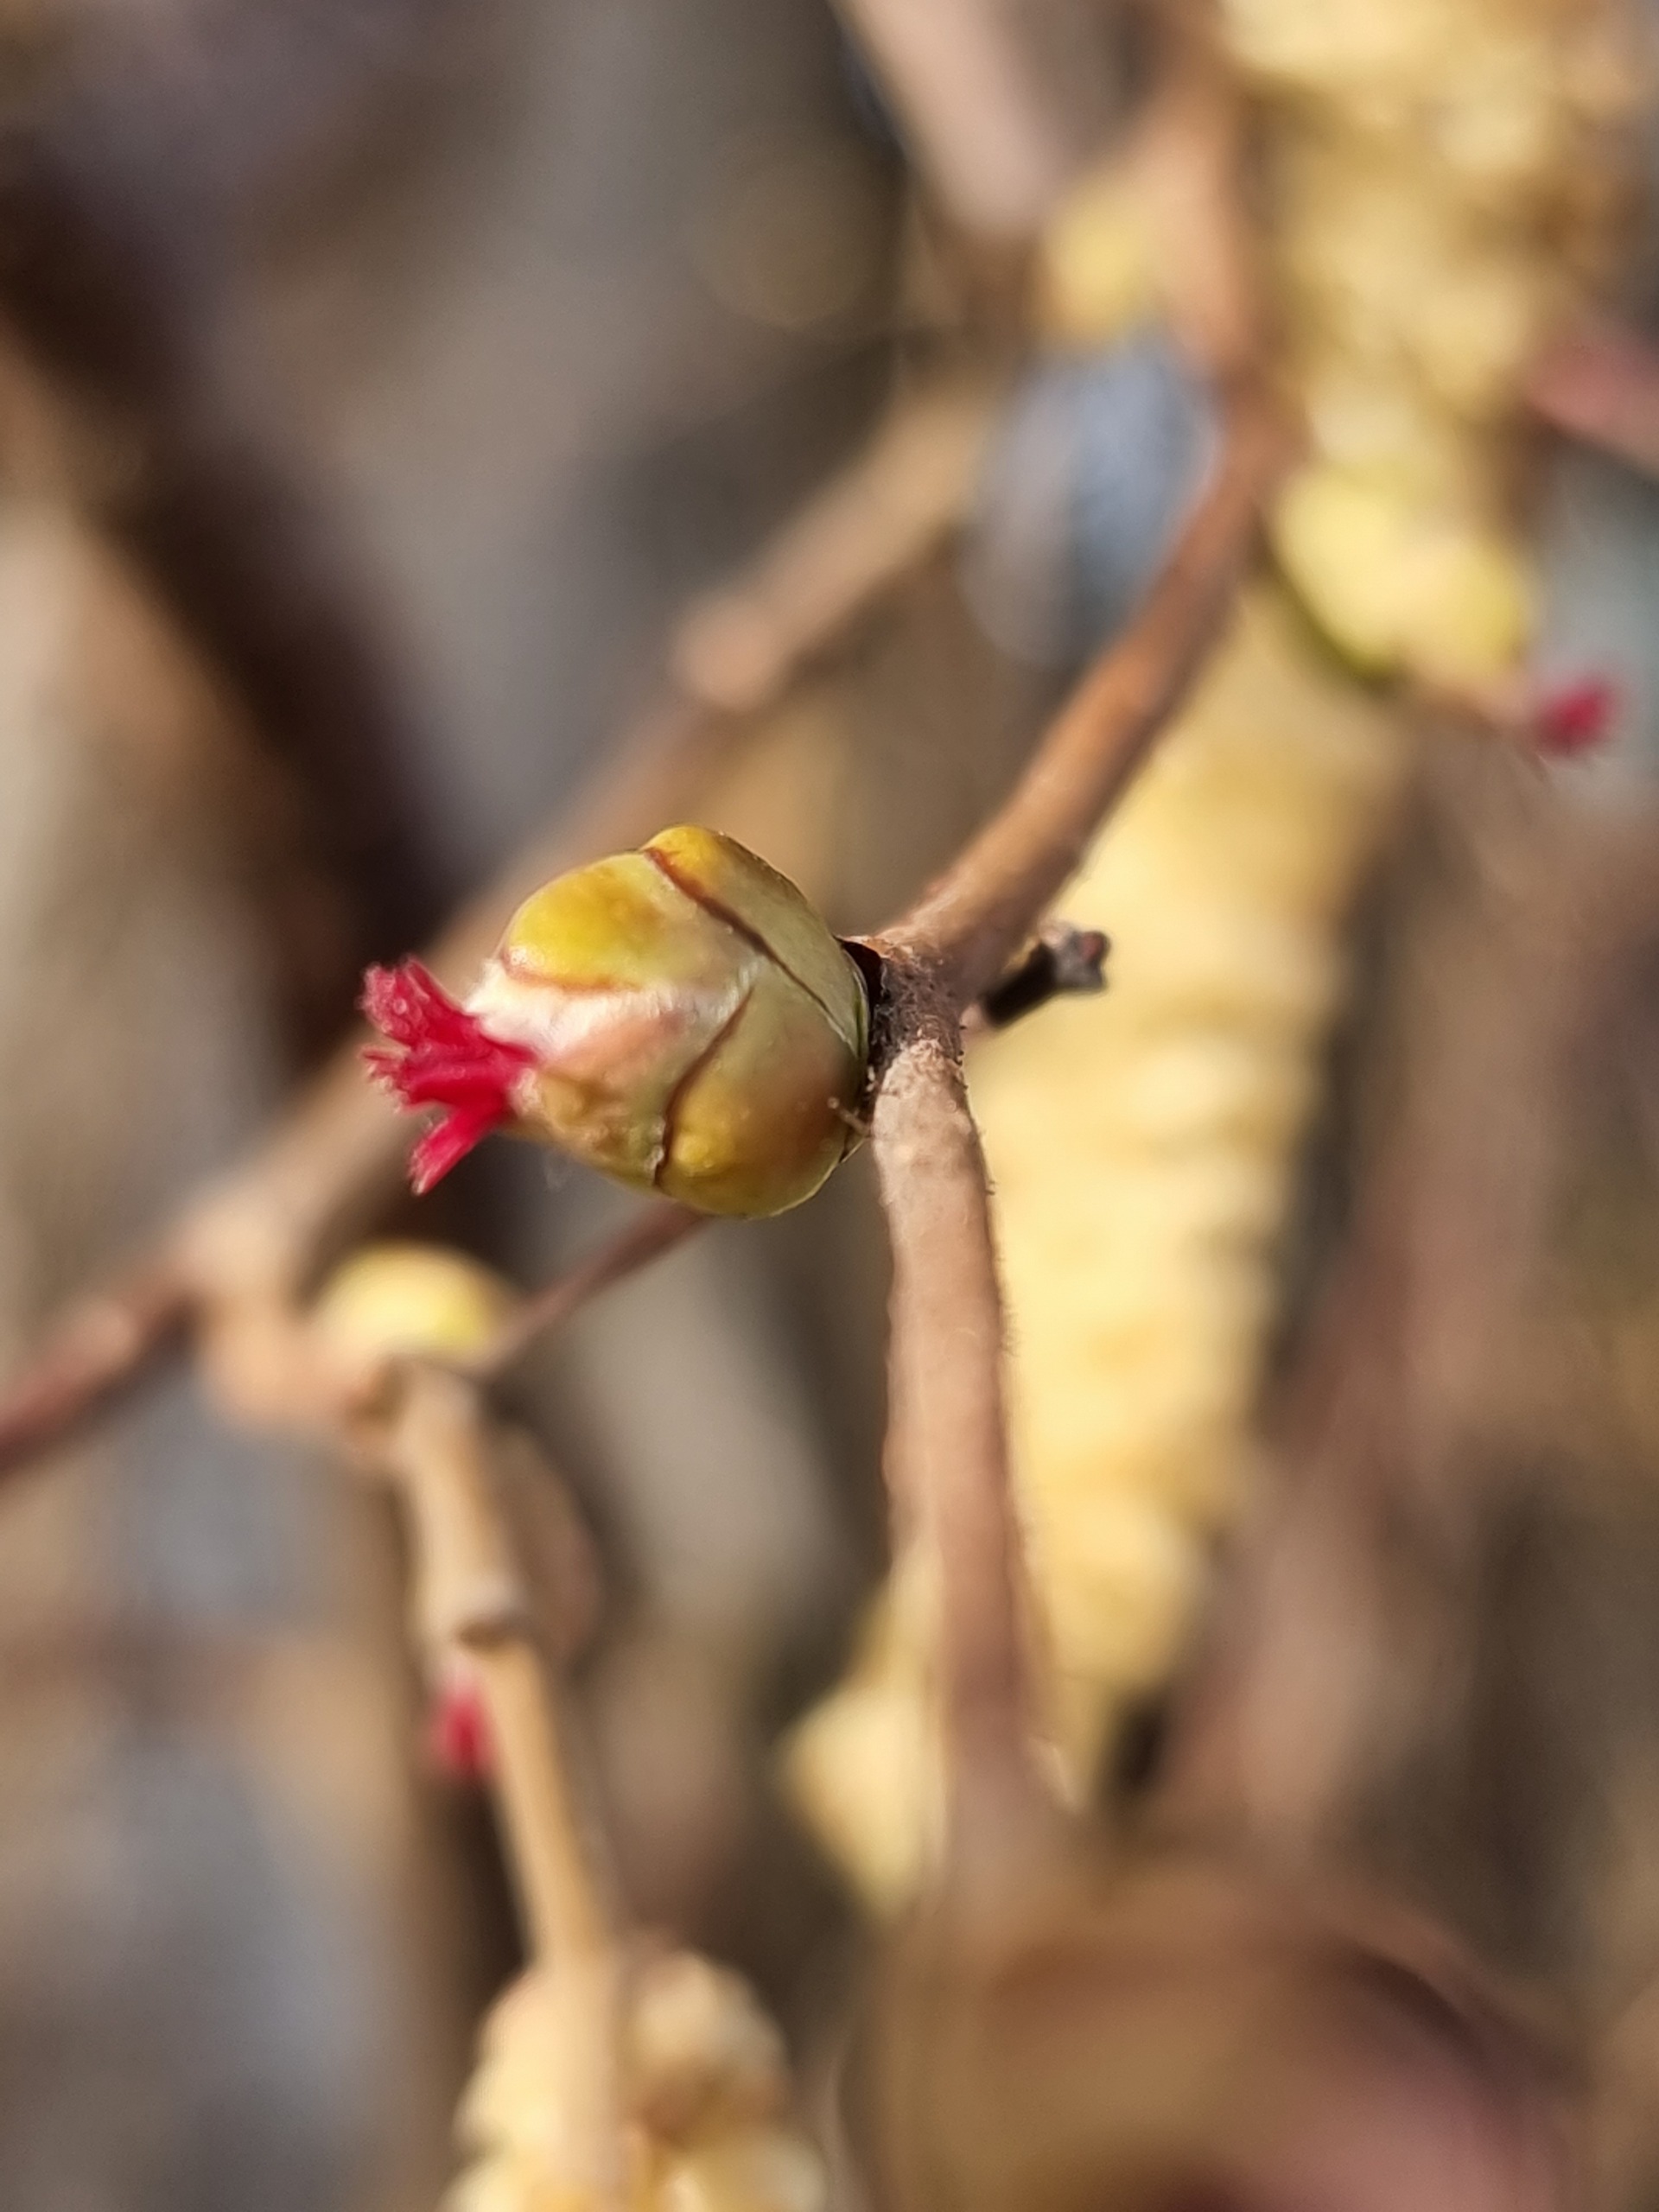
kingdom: Plantae
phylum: Tracheophyta
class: Magnoliopsida
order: Fagales
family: Betulaceae
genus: Corylus
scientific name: Corylus avellana
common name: Hassel
